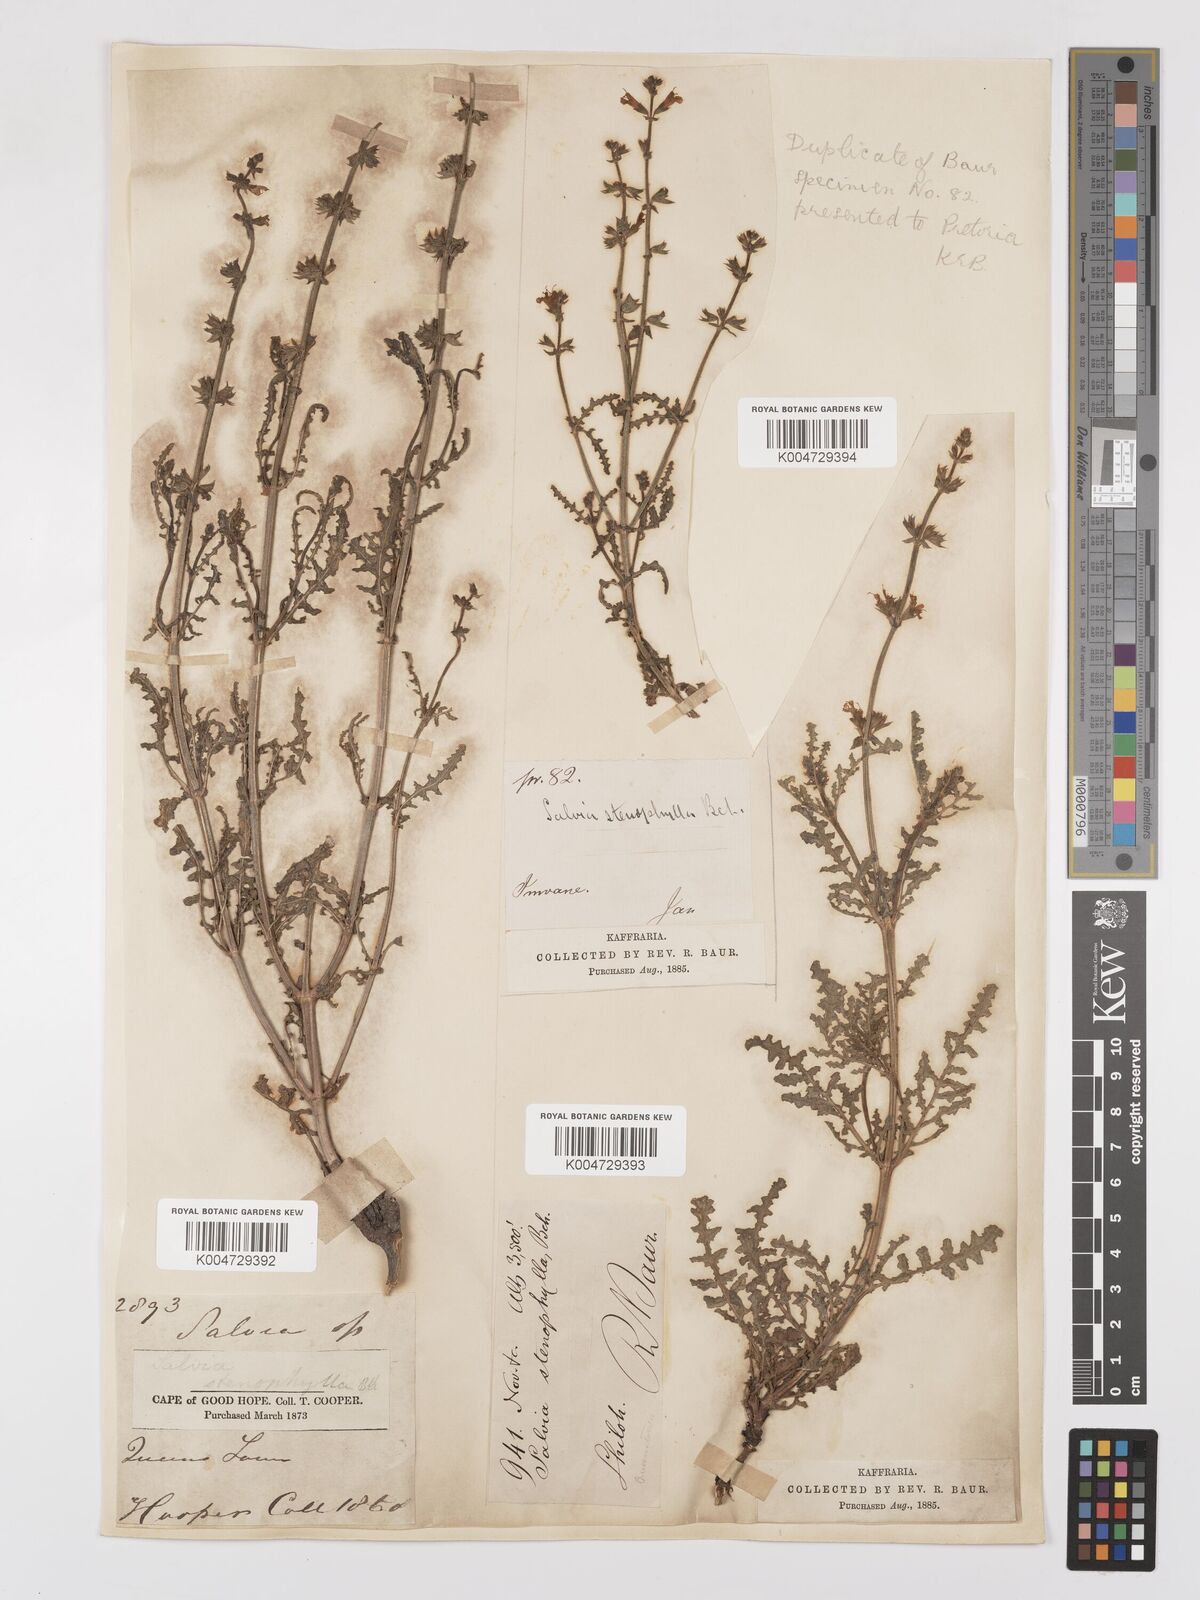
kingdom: Plantae
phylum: Tracheophyta
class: Magnoliopsida
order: Lamiales
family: Lamiaceae
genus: Salvia
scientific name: Salvia stenophylla
